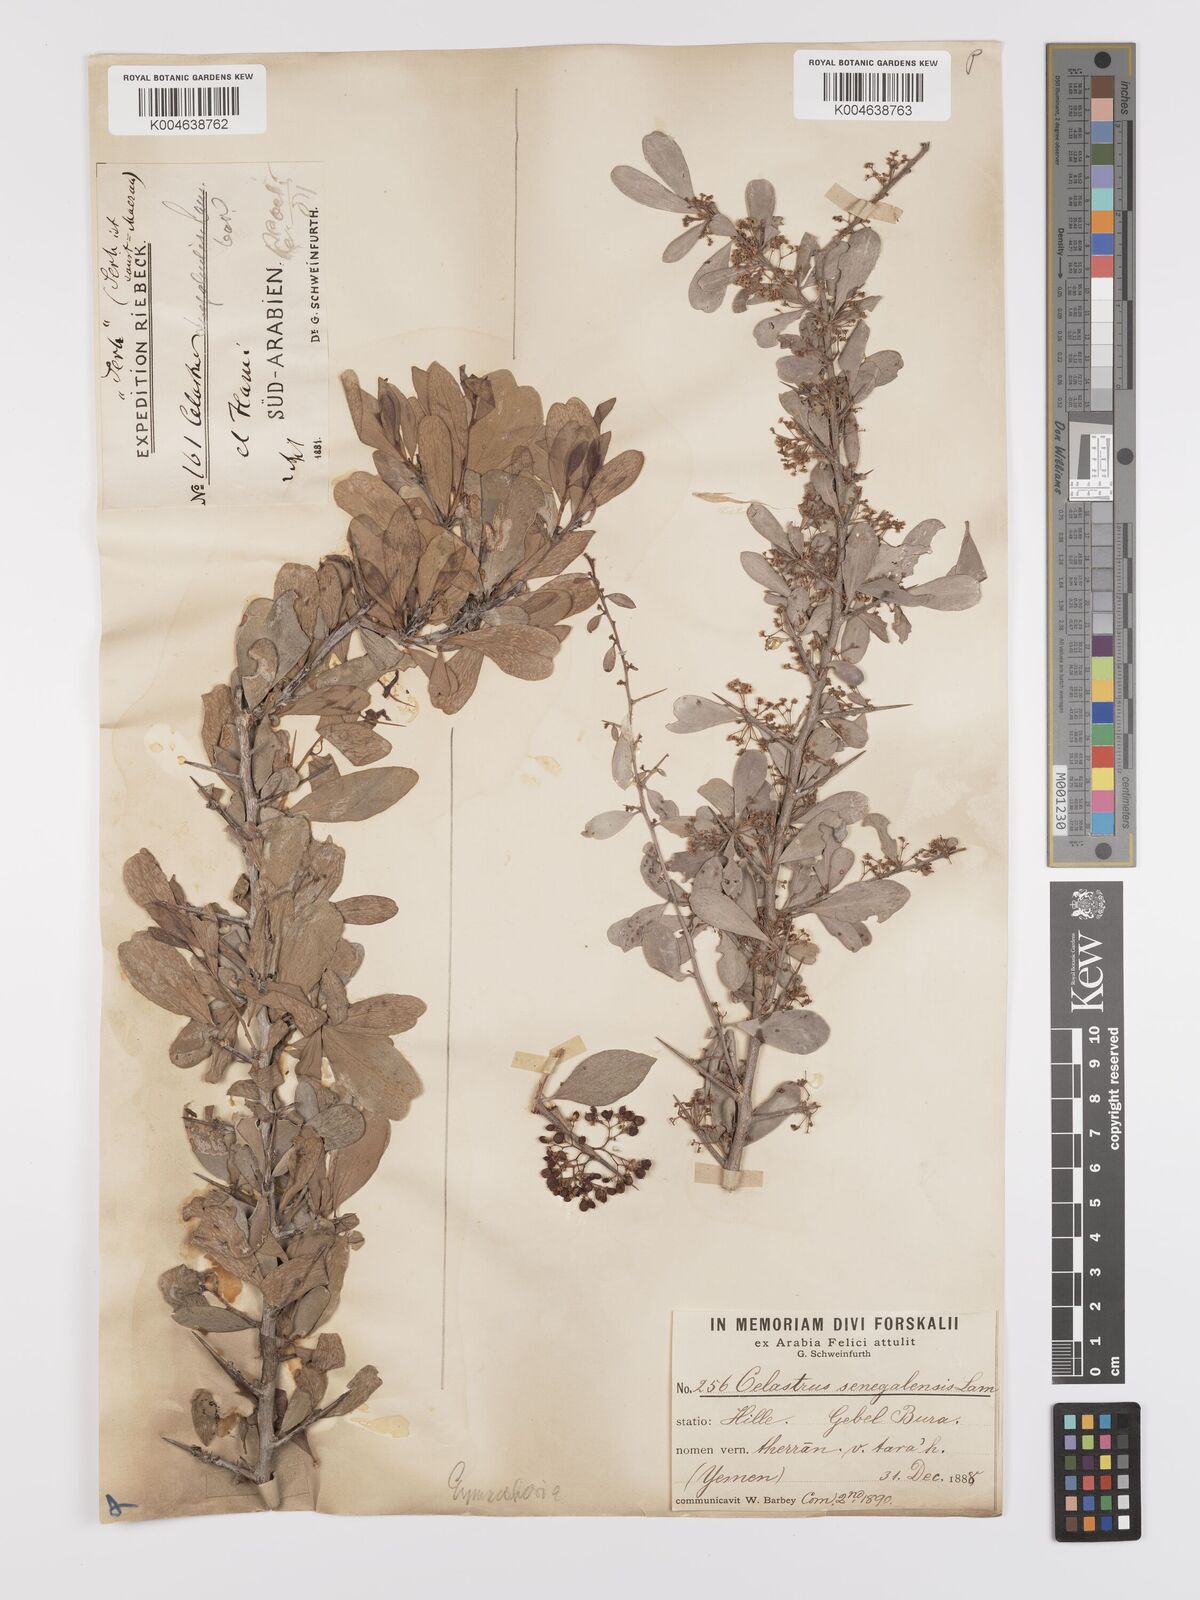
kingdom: Plantae
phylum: Tracheophyta
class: Magnoliopsida
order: Celastrales
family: Celastraceae
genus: Gymnosporia
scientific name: Gymnosporia senegalensis
